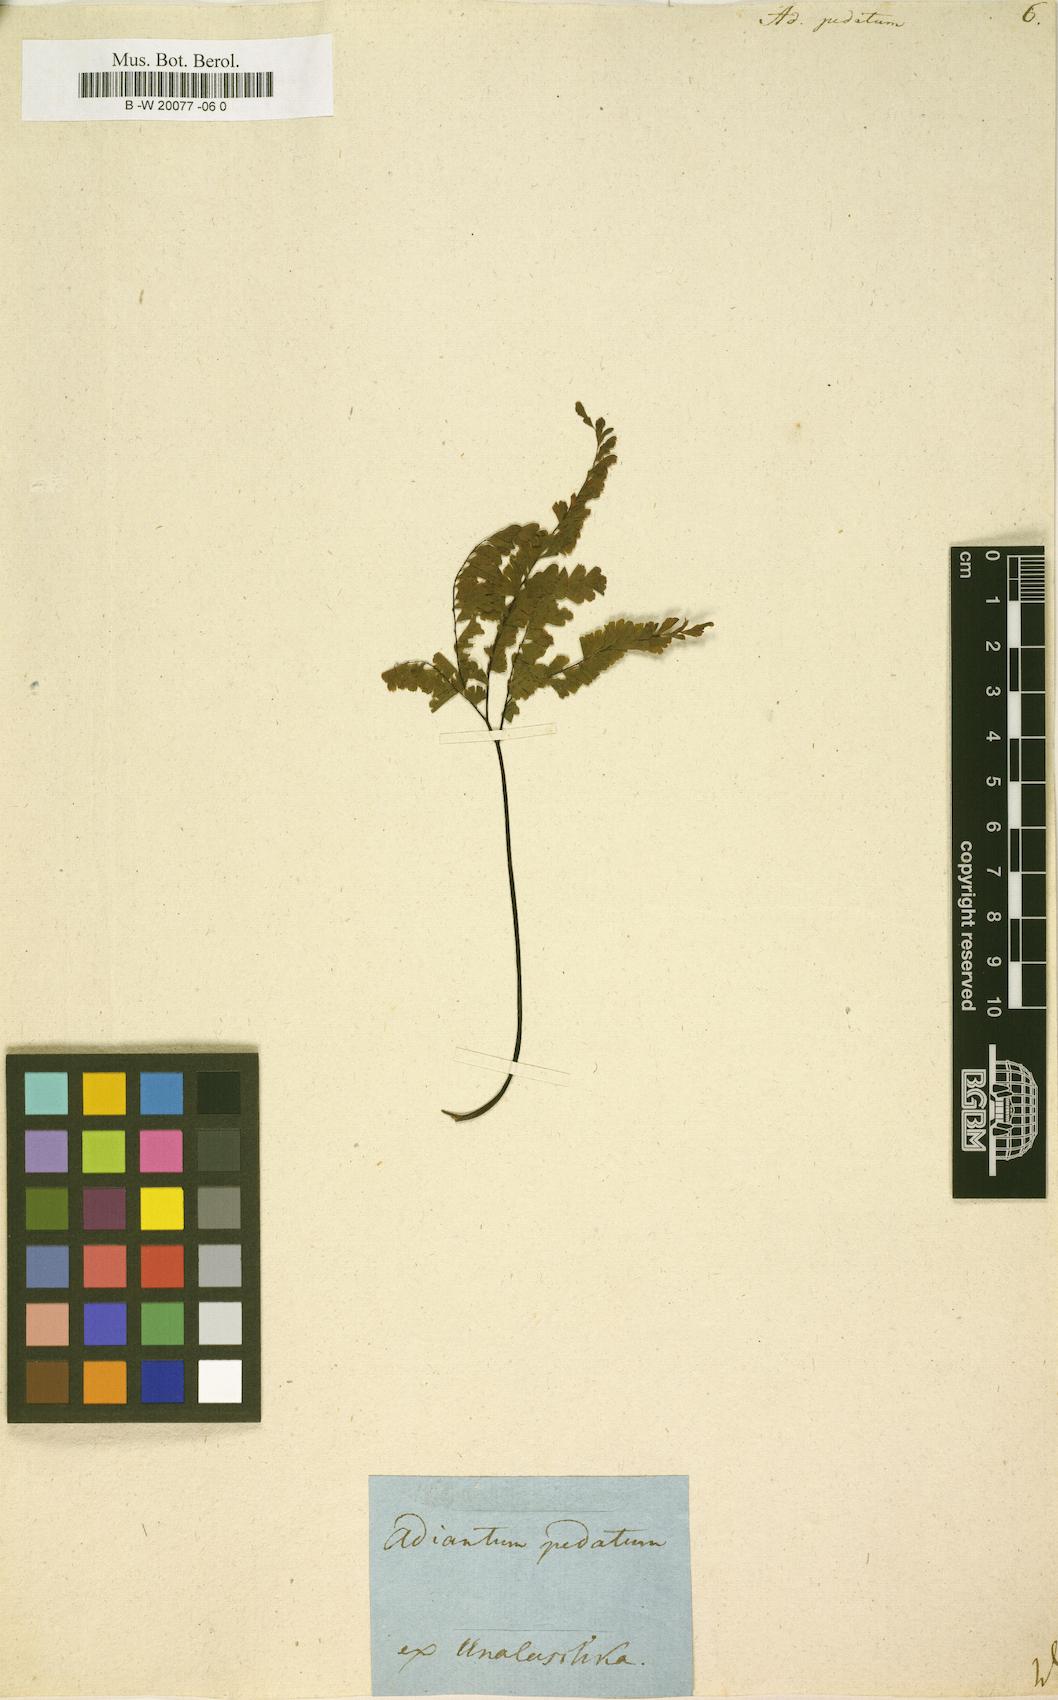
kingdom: Plantae
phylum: Tracheophyta
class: Polypodiopsida
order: Polypodiales
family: Pteridaceae
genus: Adiantum
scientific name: Adiantum pedatum
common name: Five-finger fern
